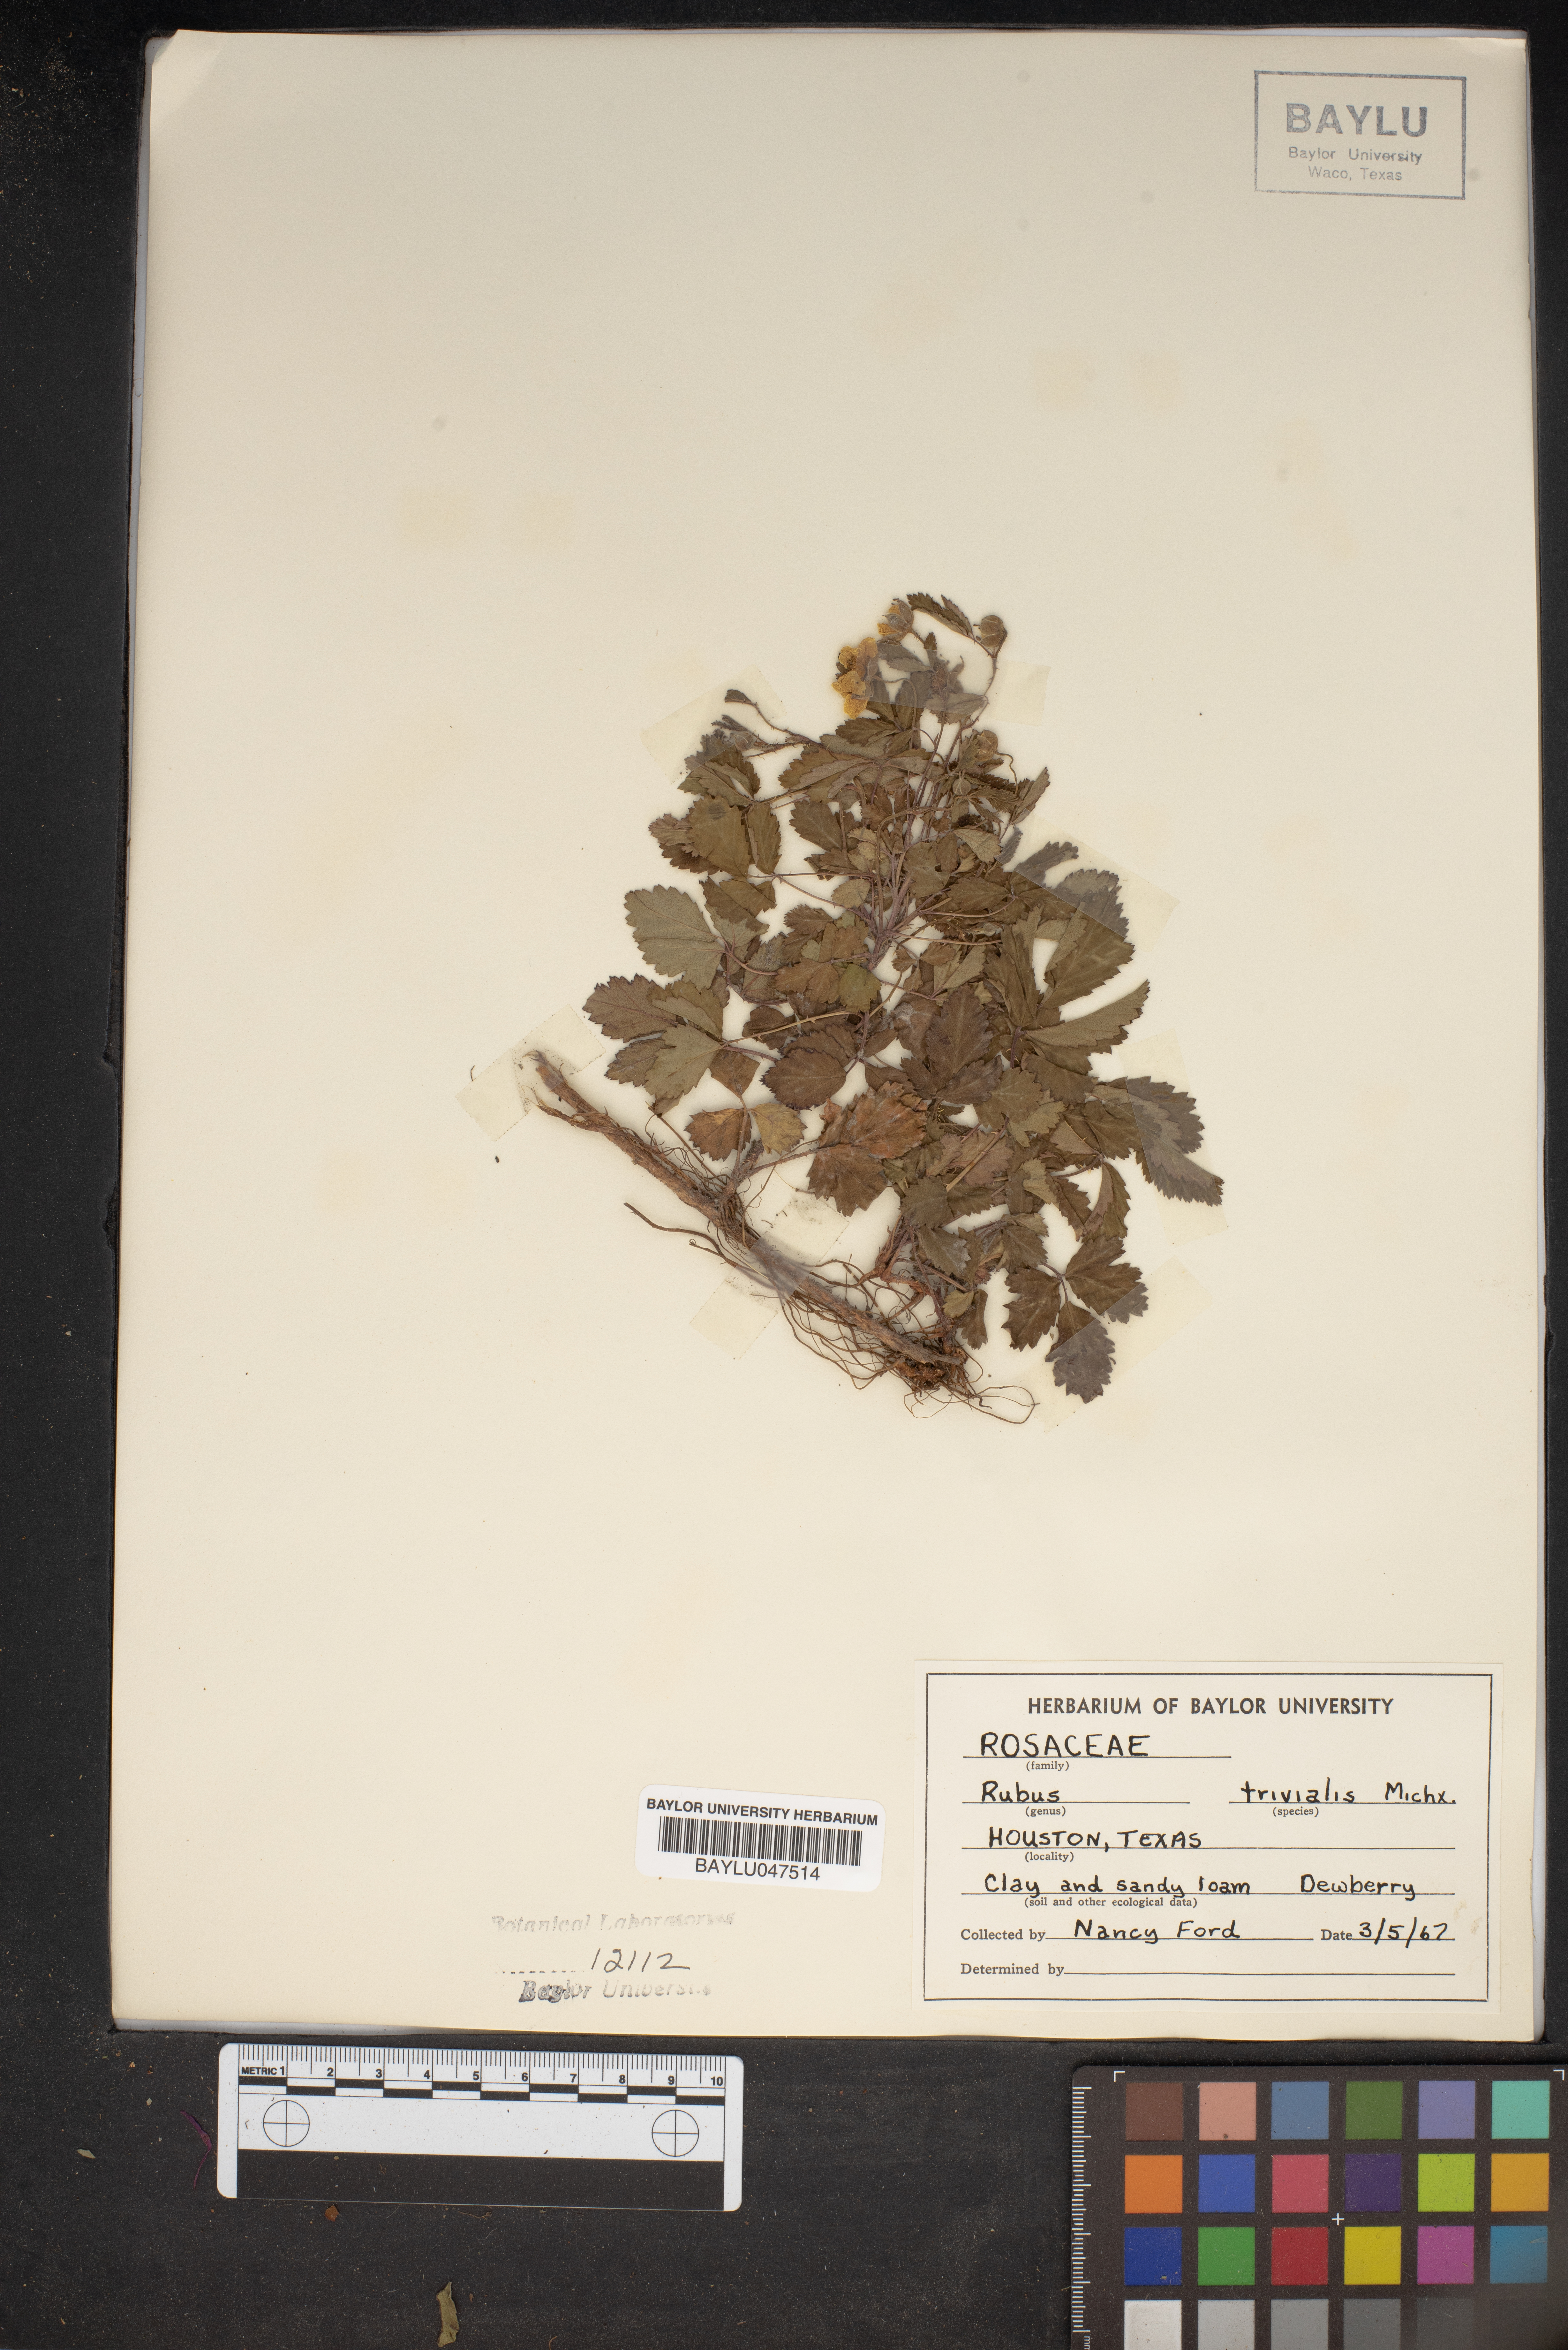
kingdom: Plantae
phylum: Tracheophyta
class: Magnoliopsida
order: Rosales
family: Rosaceae
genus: Rubus
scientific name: Rubus trivialis
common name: Southern dewberry
